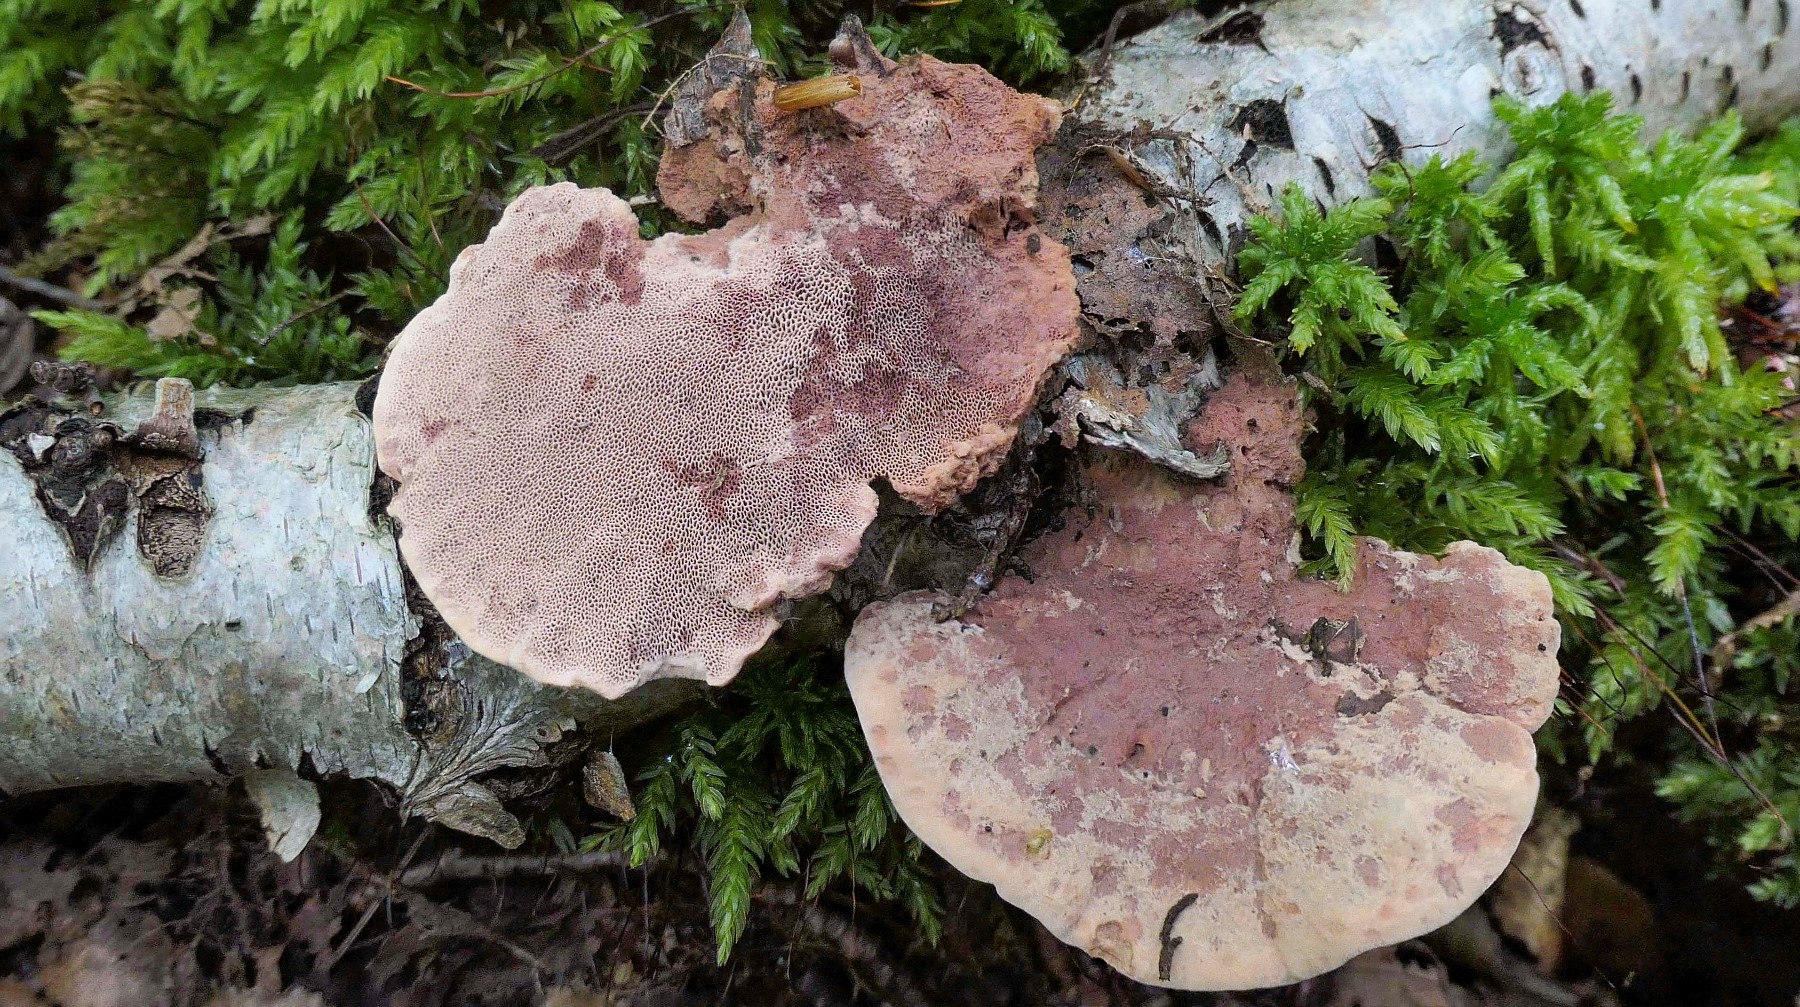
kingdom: Fungi
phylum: Basidiomycota
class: Agaricomycetes
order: Polyporales
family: Phanerochaetaceae
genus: Hapalopilus
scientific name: Hapalopilus rutilans
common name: rødlig okkerporesvamp
